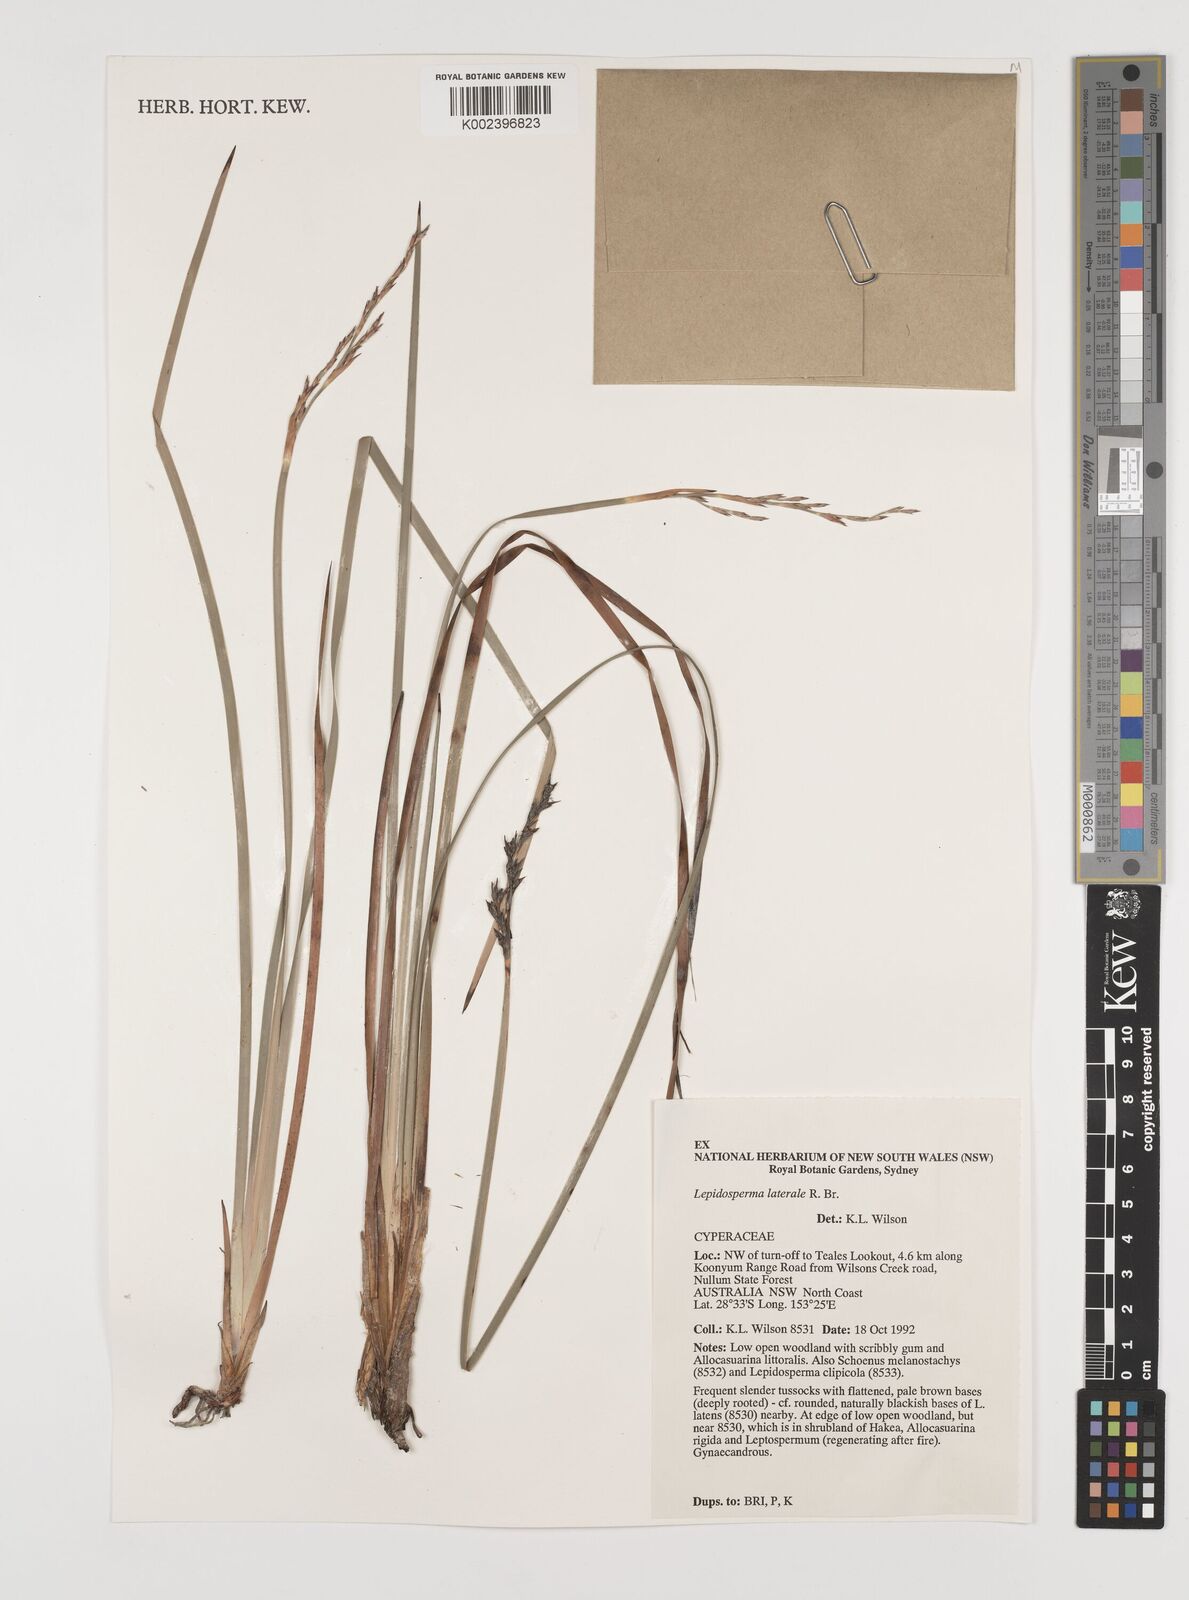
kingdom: Plantae
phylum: Tracheophyta
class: Liliopsida
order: Poales
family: Cyperaceae
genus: Lepidosperma
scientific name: Lepidosperma laterale
